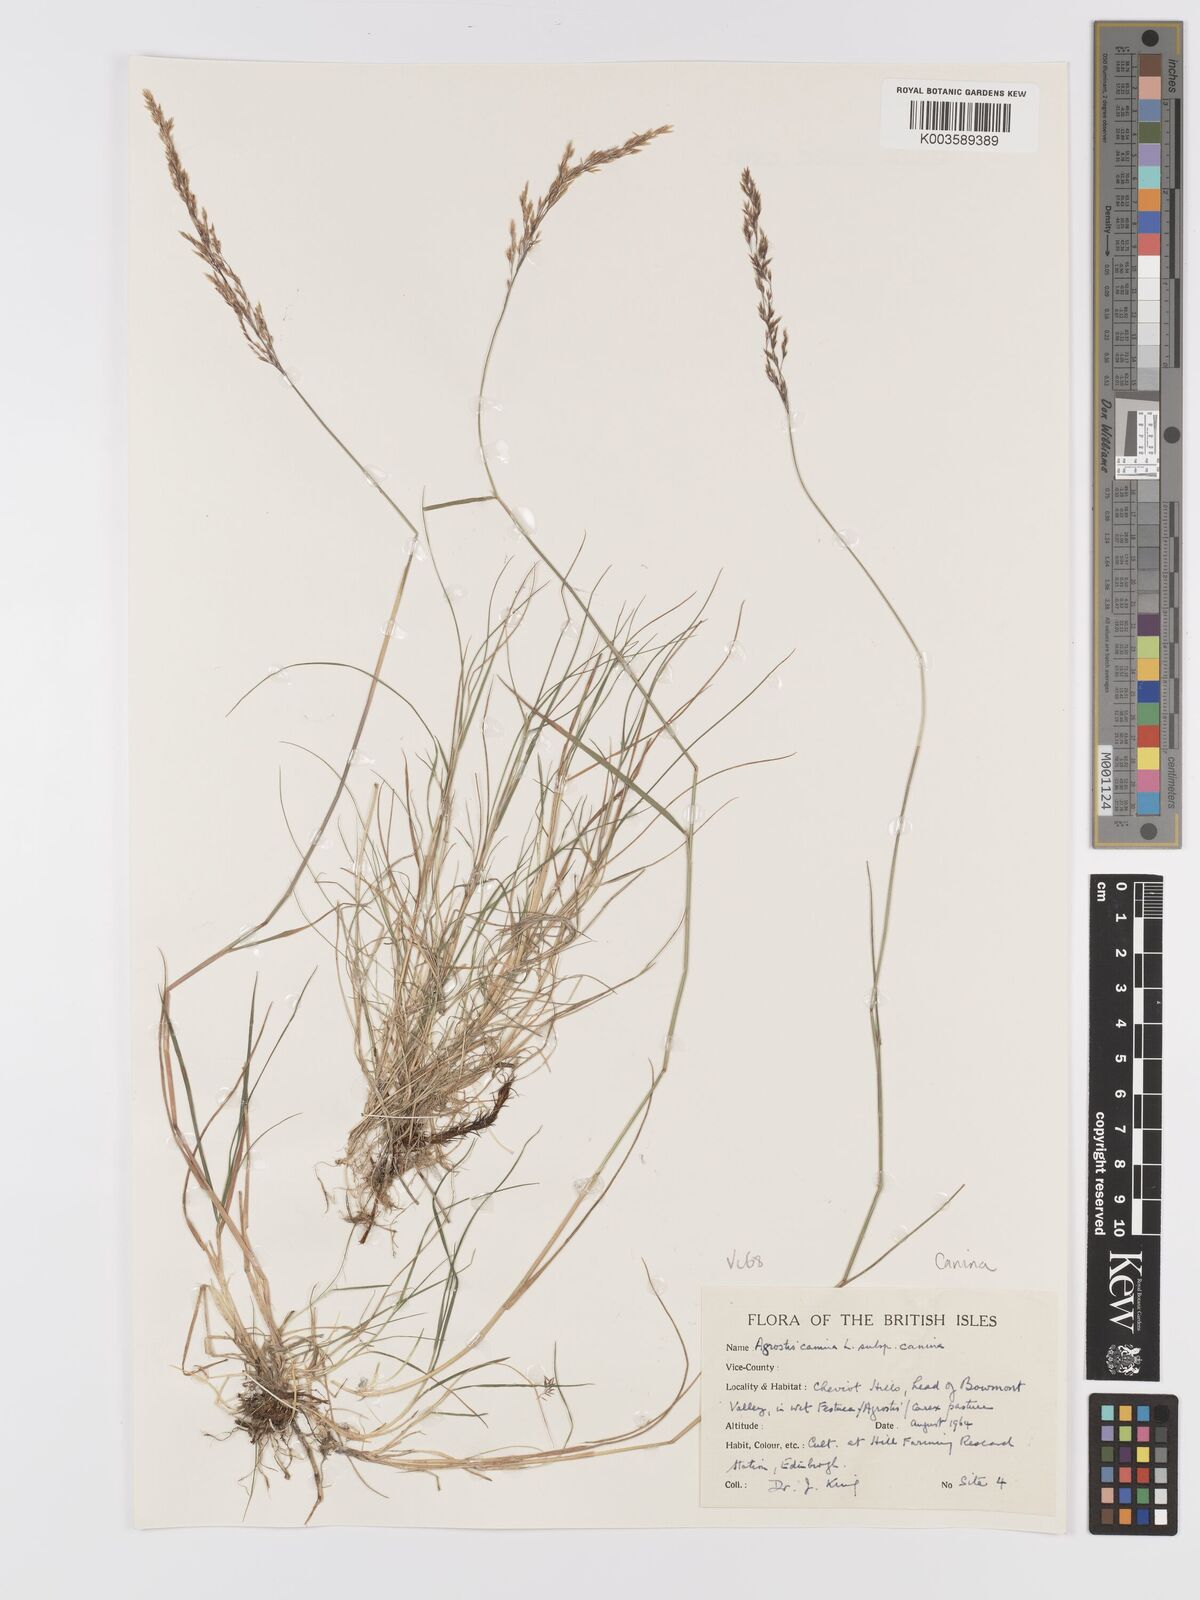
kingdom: Plantae
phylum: Tracheophyta
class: Liliopsida
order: Poales
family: Poaceae
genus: Agrostis
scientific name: Agrostis canina
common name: Velvet bent
